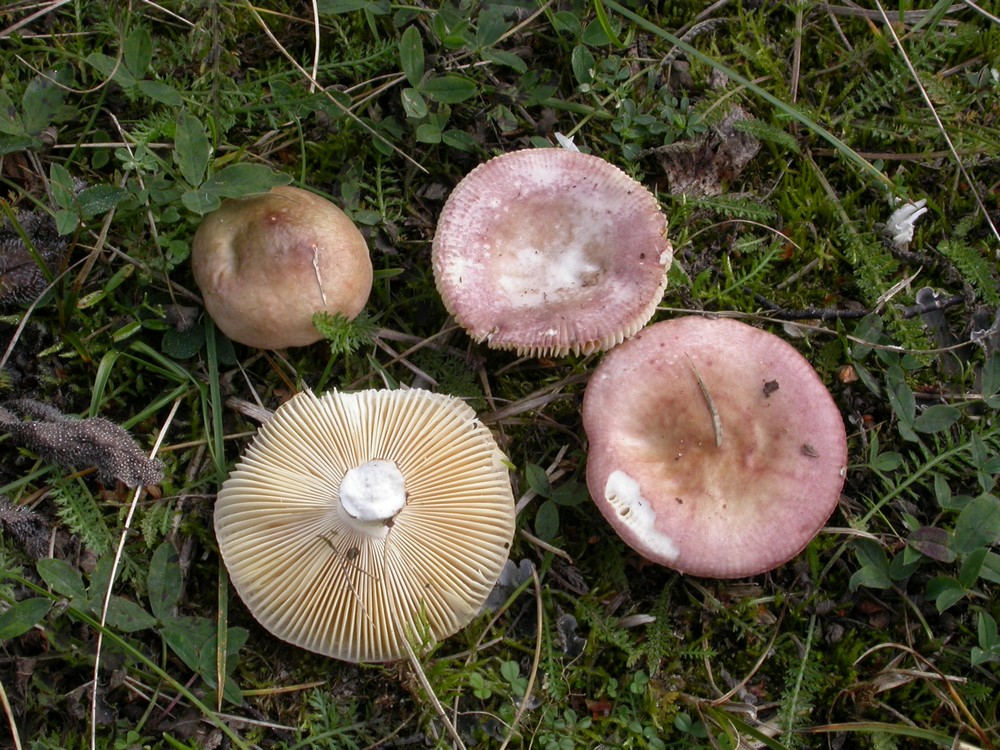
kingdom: Fungi
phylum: Basidiomycota
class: Agaricomycetes
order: Russulales
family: Russulaceae
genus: Russula
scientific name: Russula versicolor
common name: foranderlig skørhat
